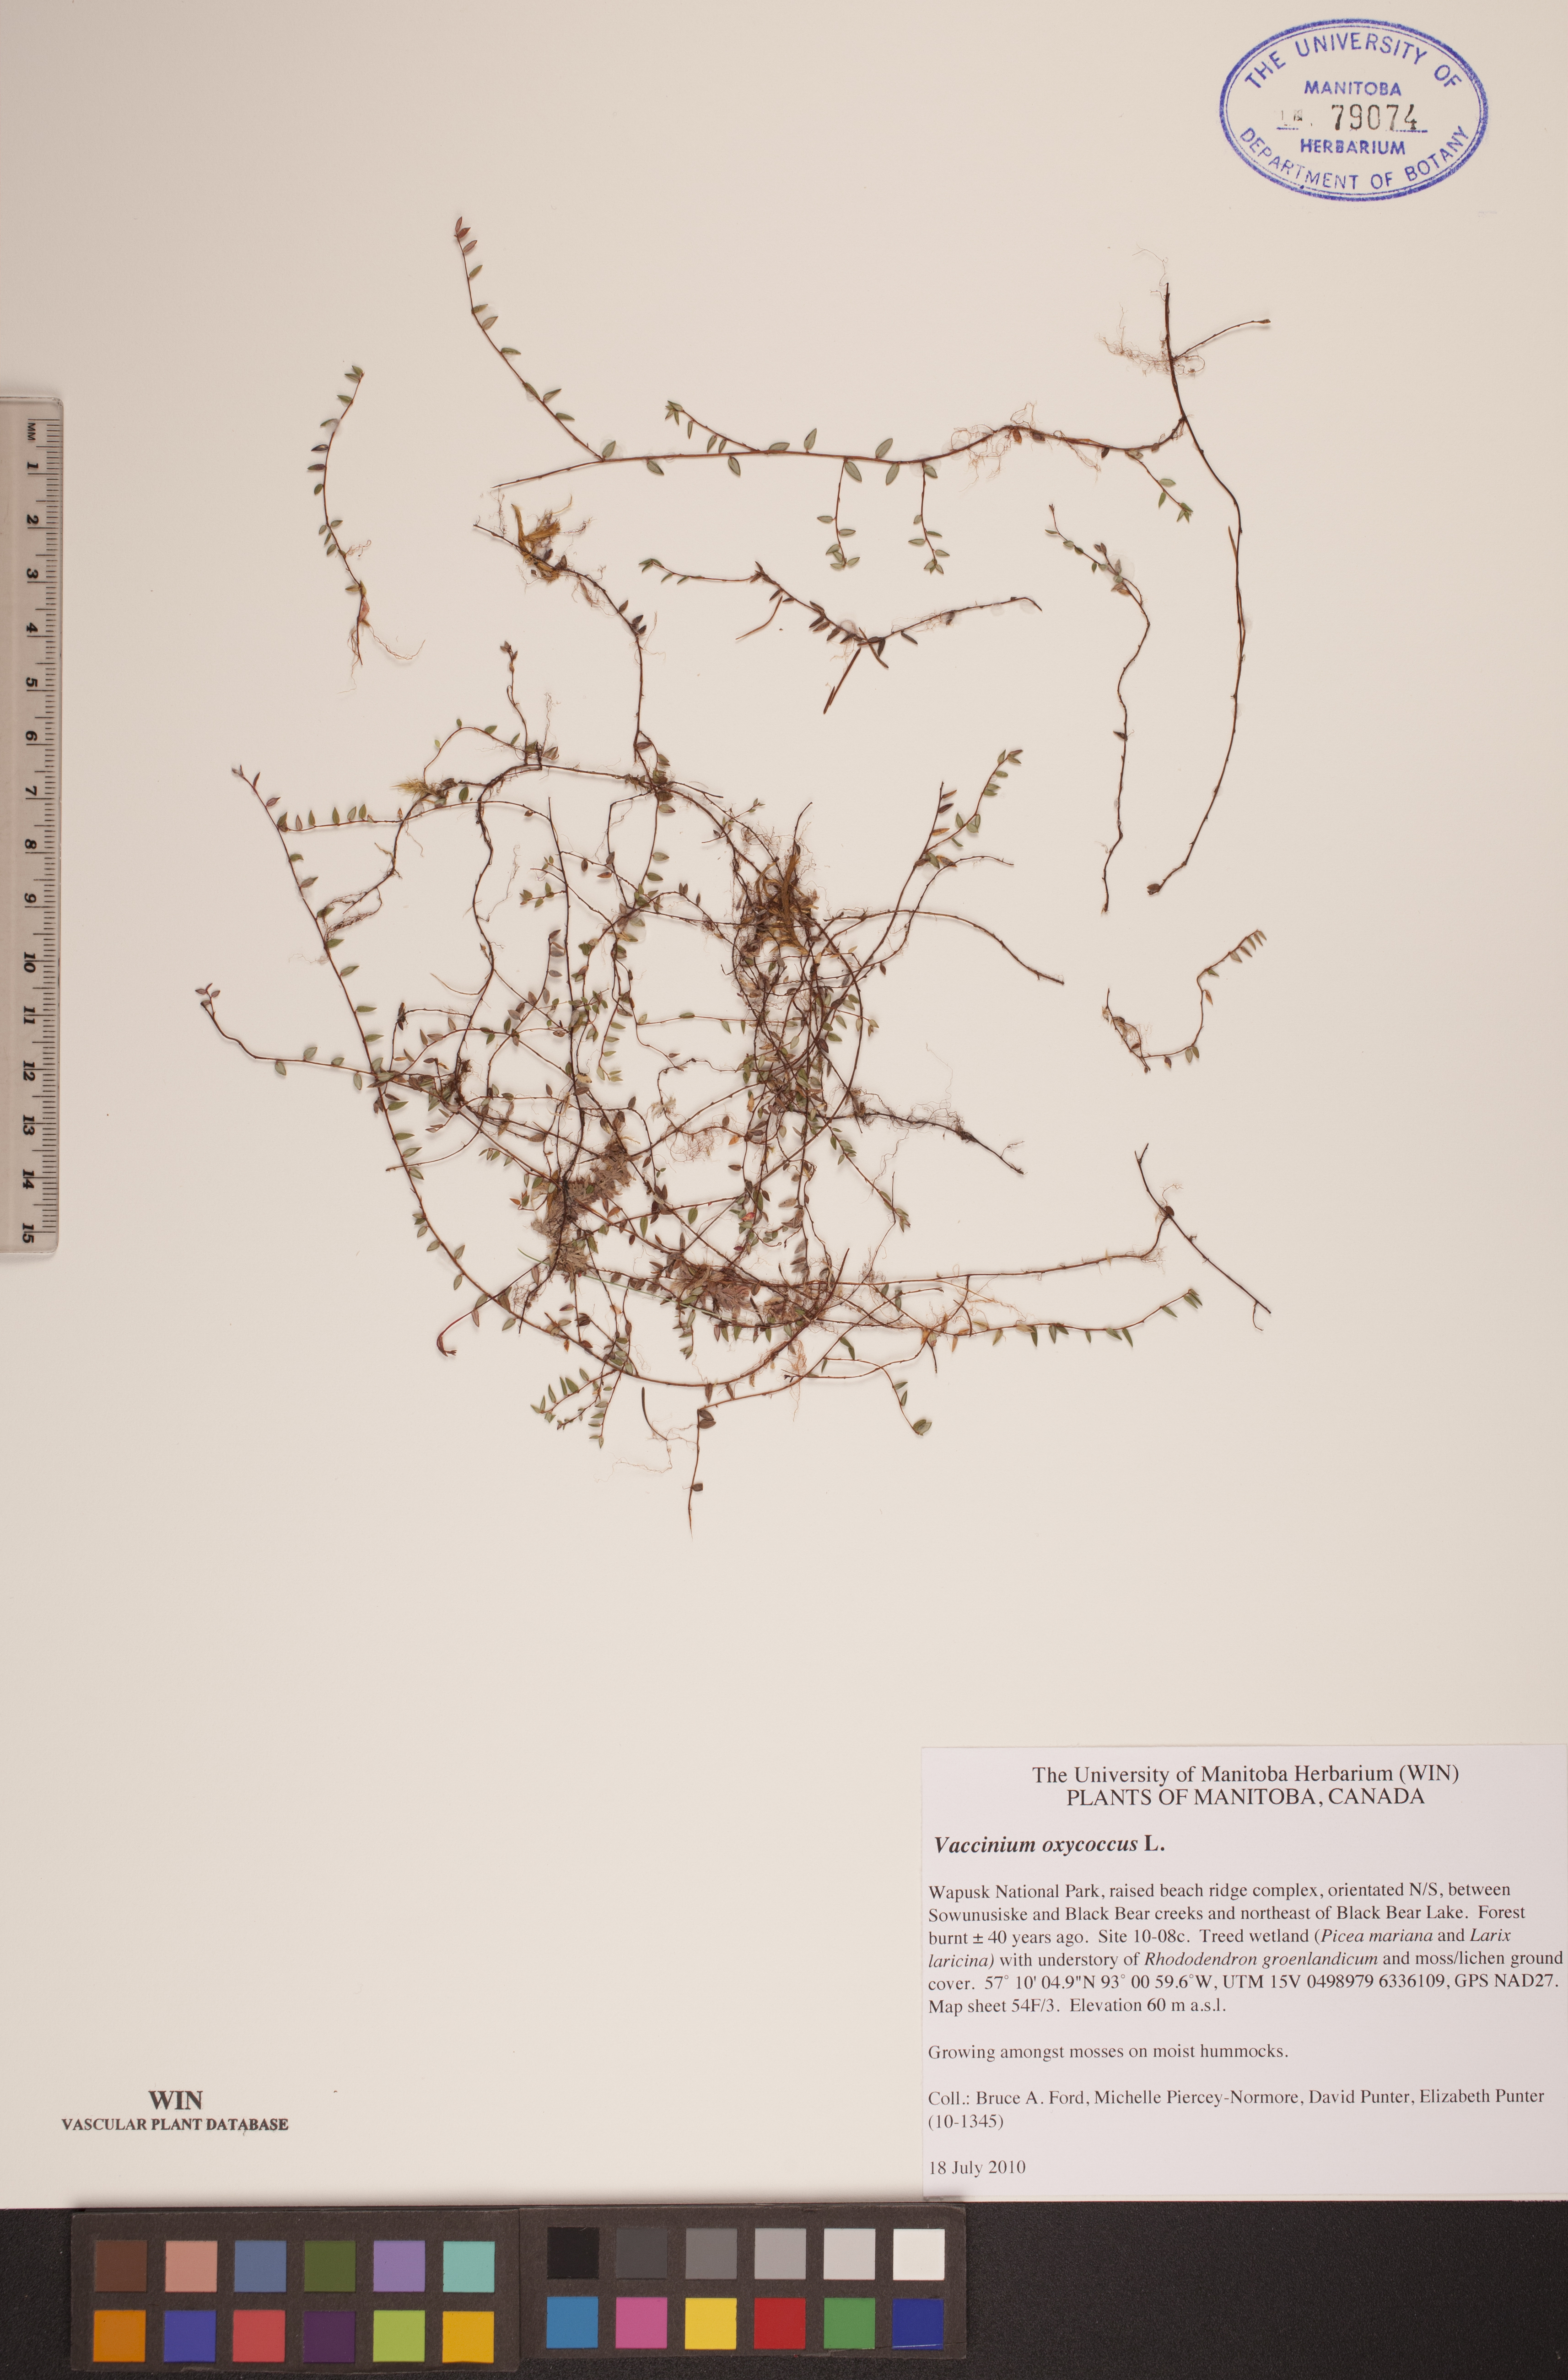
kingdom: Plantae
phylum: Tracheophyta
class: Magnoliopsida
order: Ericales
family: Ericaceae
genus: Vaccinium
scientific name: Vaccinium oxycoccos
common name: Cranberry
